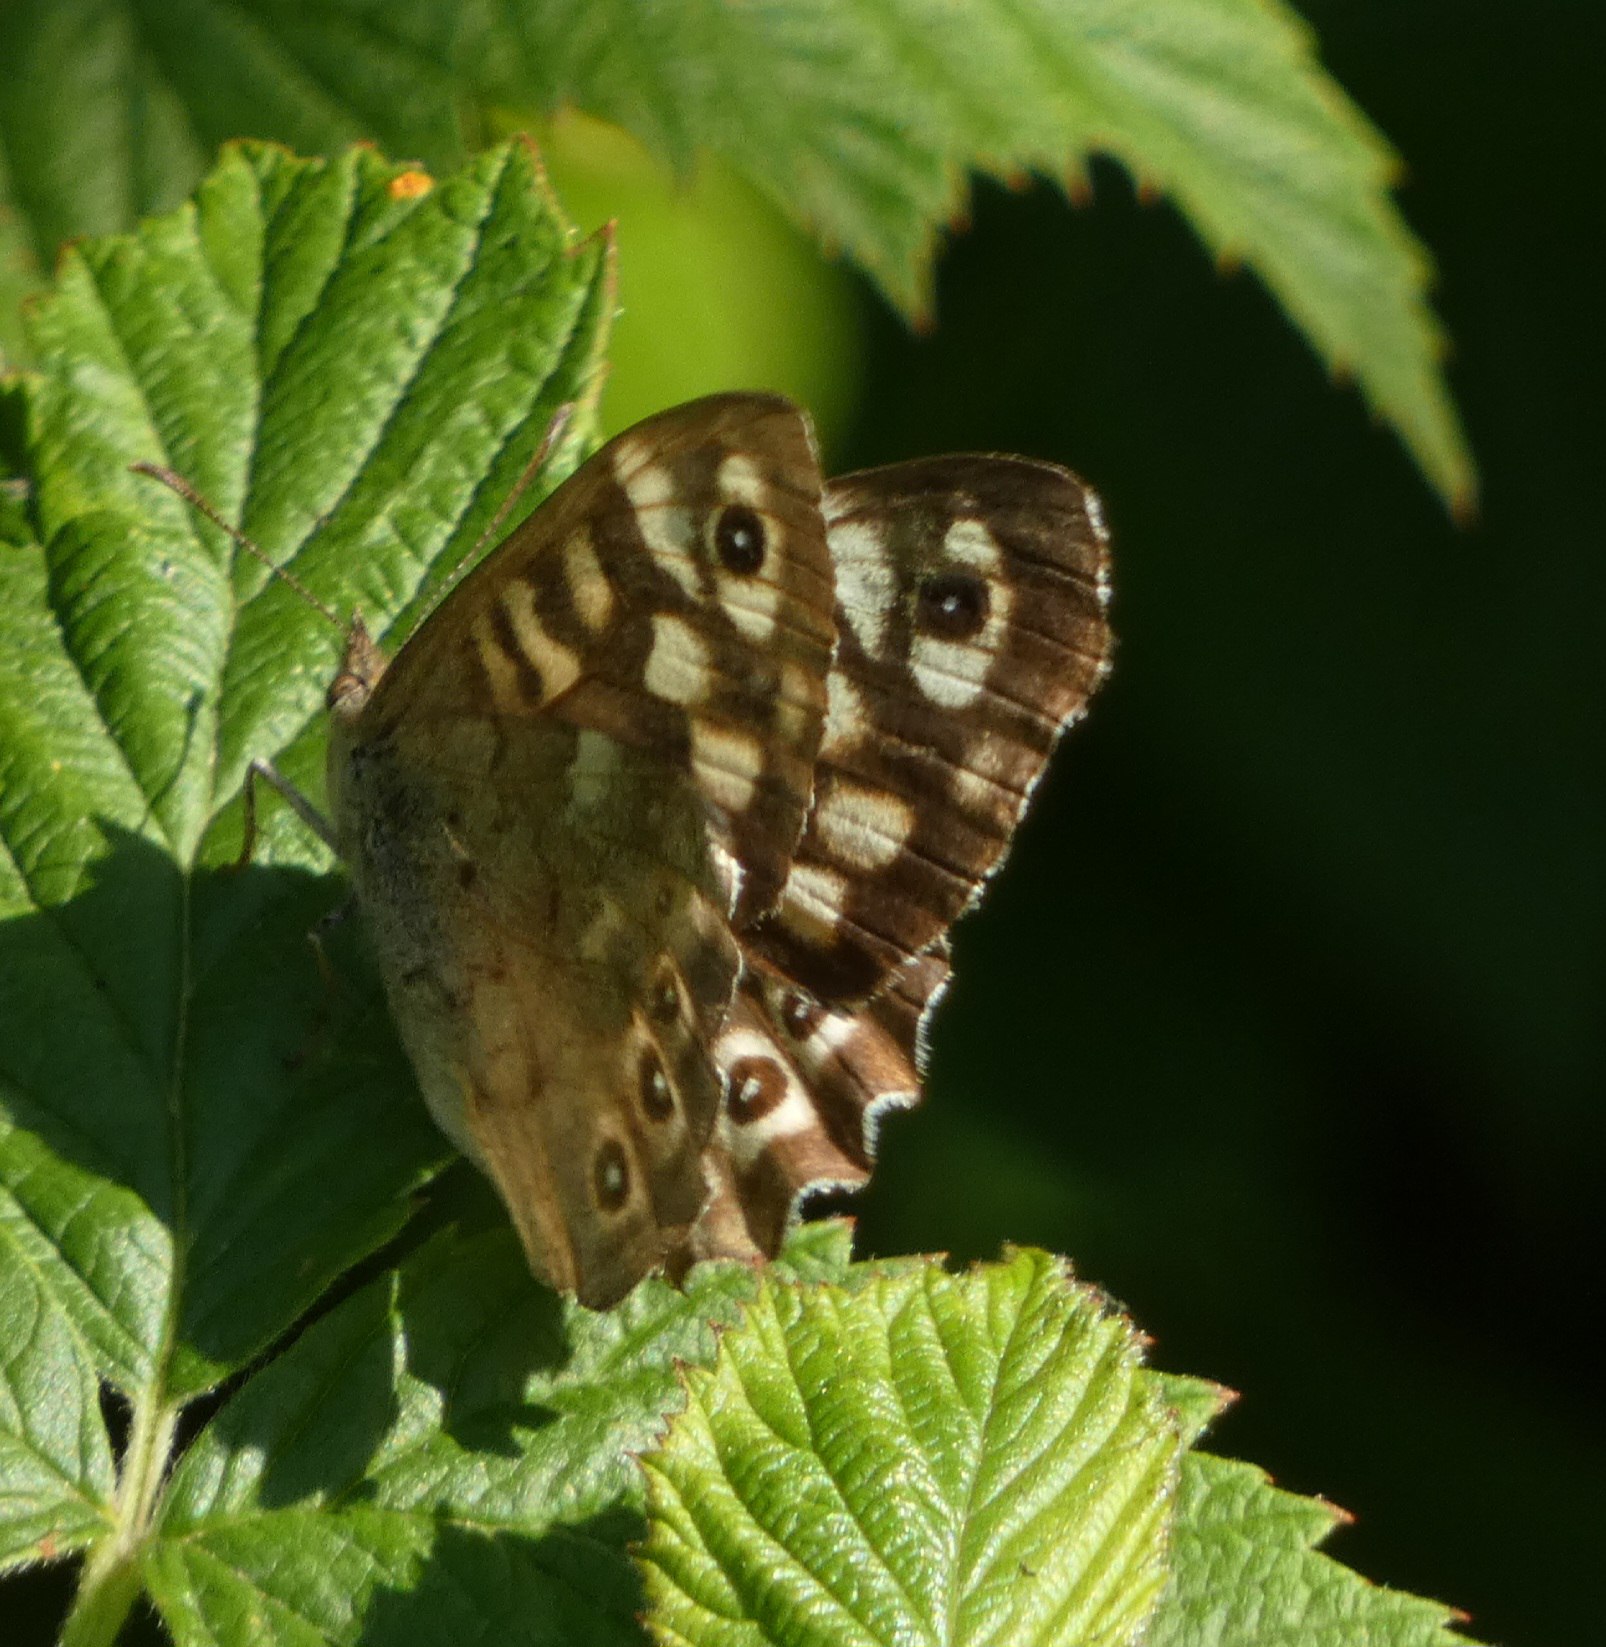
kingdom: Animalia
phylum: Arthropoda
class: Insecta
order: Lepidoptera
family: Nymphalidae
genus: Pararge
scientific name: Pararge aegeria
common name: Skovrandøje
